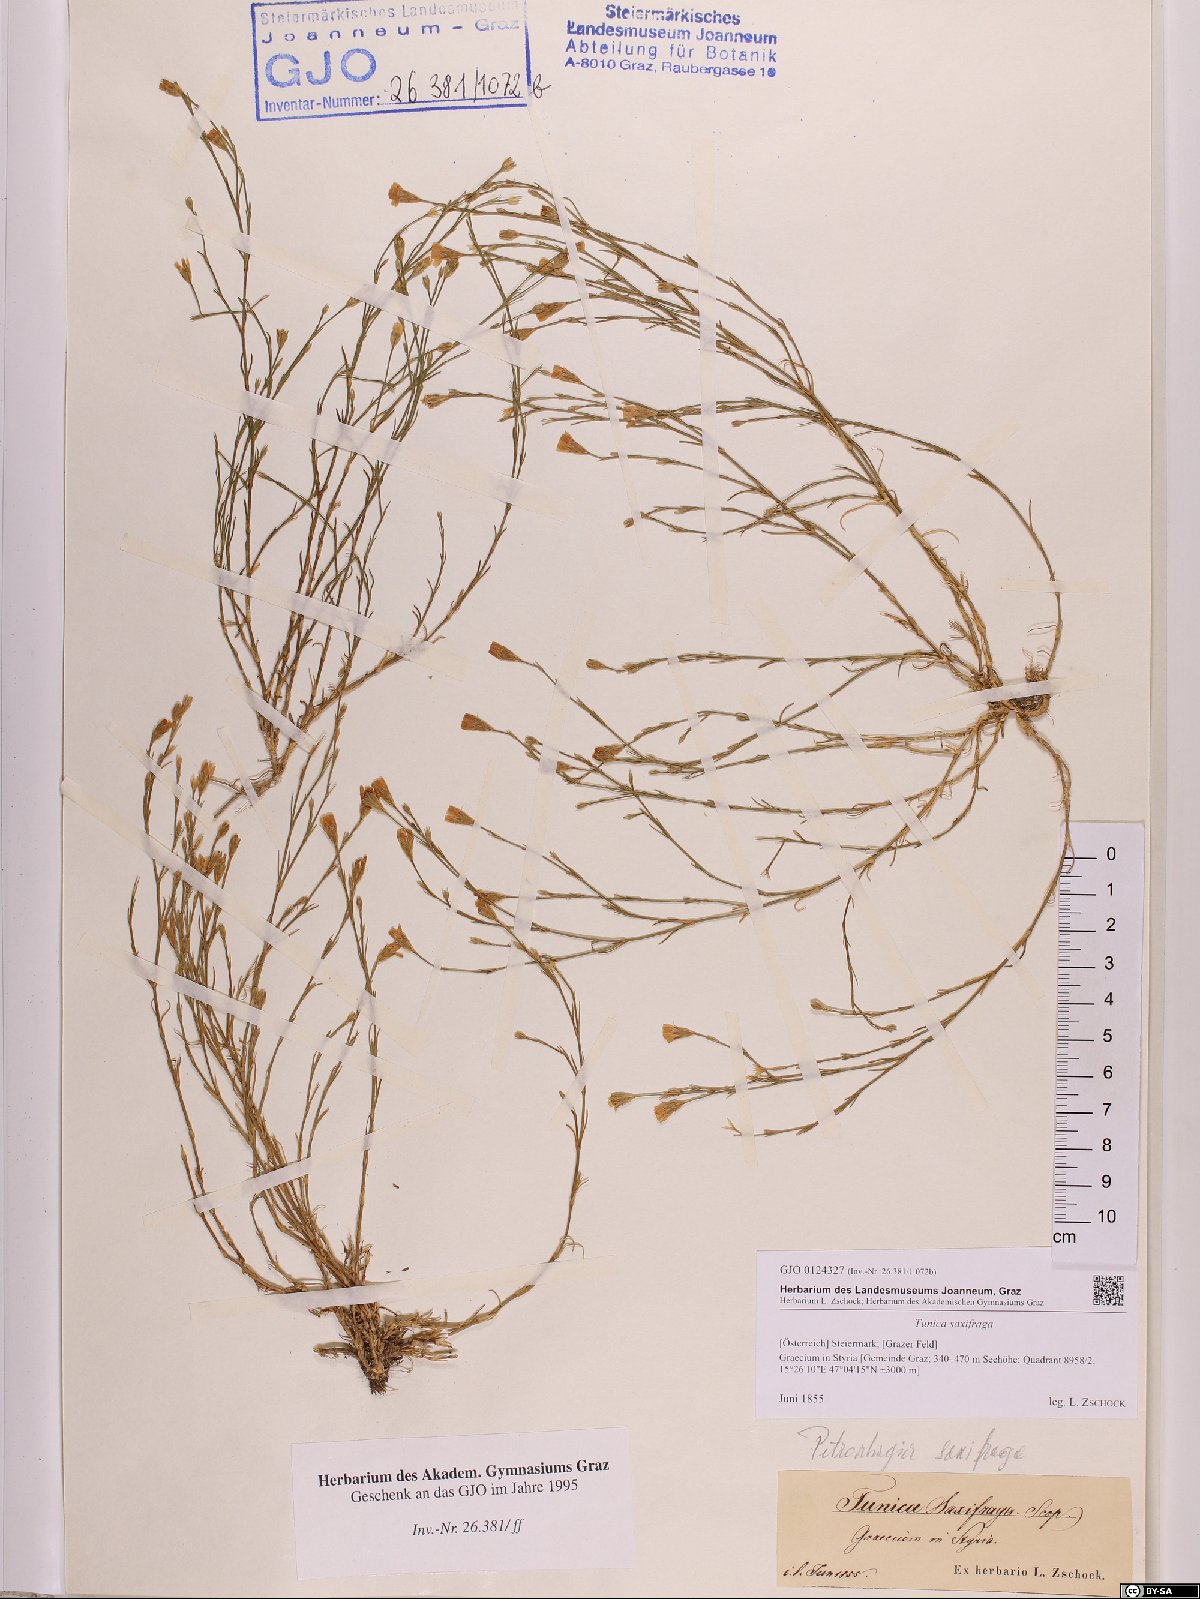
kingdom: Plantae
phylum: Tracheophyta
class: Magnoliopsida
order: Caryophyllales
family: Caryophyllaceae
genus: Petrorhagia
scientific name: Petrorhagia saxifraga
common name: Tunicflower
